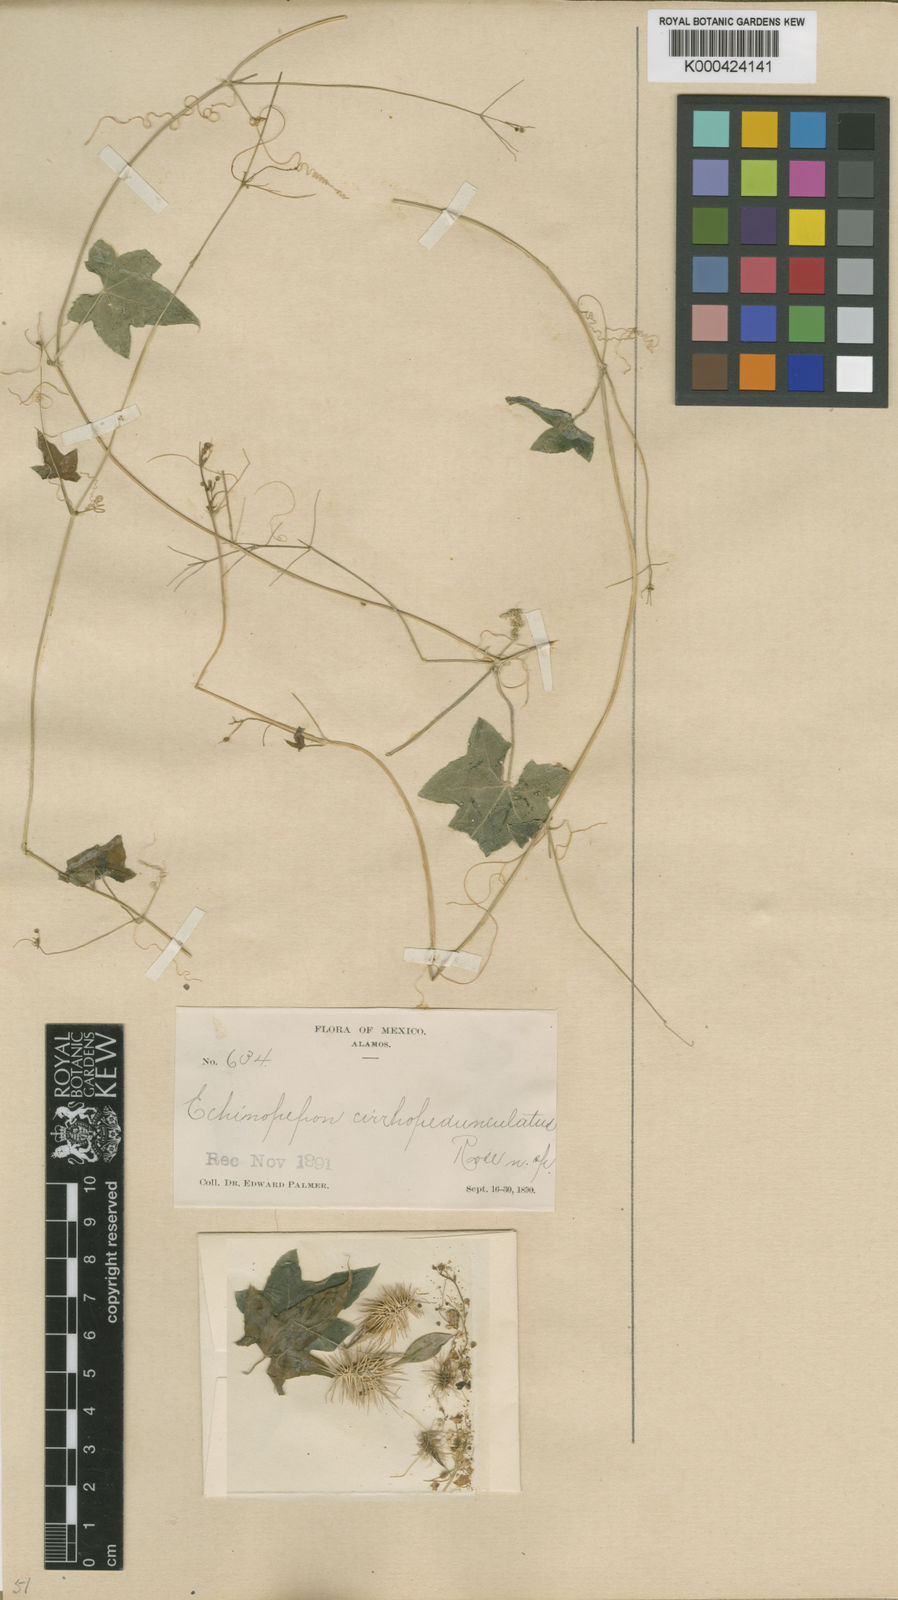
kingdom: Plantae
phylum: Tracheophyta
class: Magnoliopsida
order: Cucurbitales
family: Cucurbitaceae
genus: Echinopepon
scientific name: Echinopepon cirrhopedunculatus
